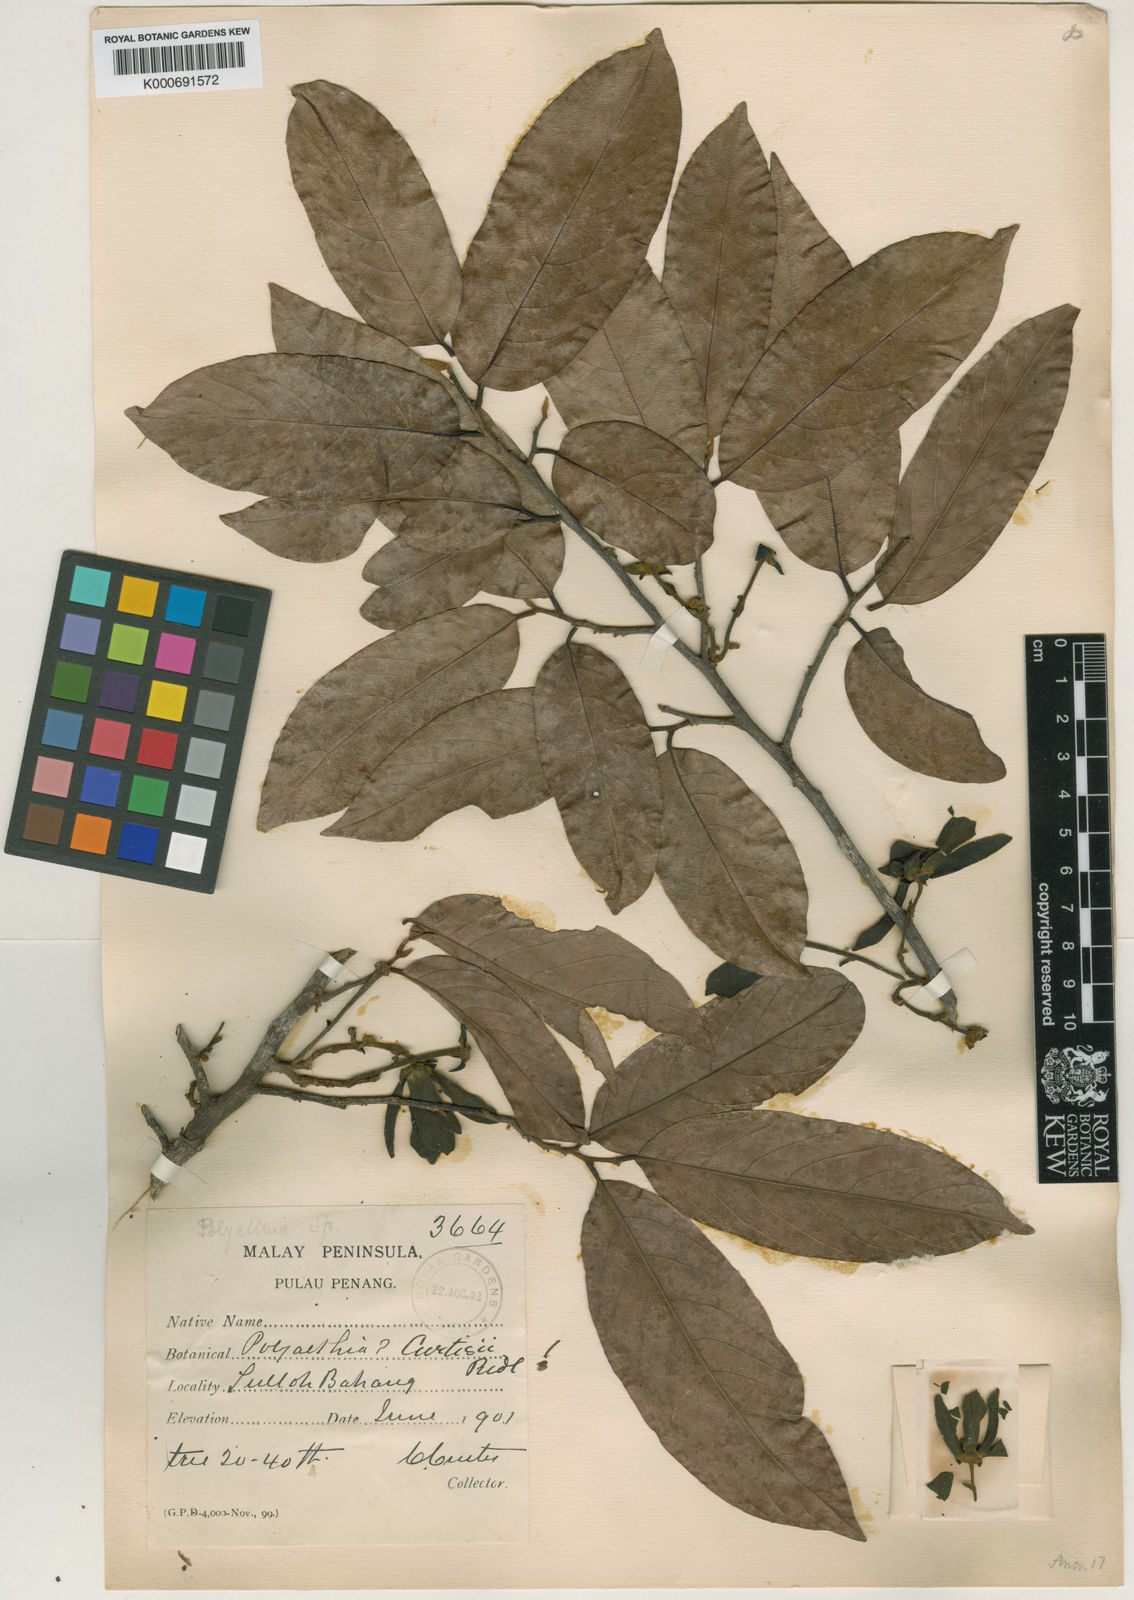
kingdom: Plantae
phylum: Tracheophyta
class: Magnoliopsida
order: Magnoliales
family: Annonaceae
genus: Polyalthia
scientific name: Polyalthia glabra
